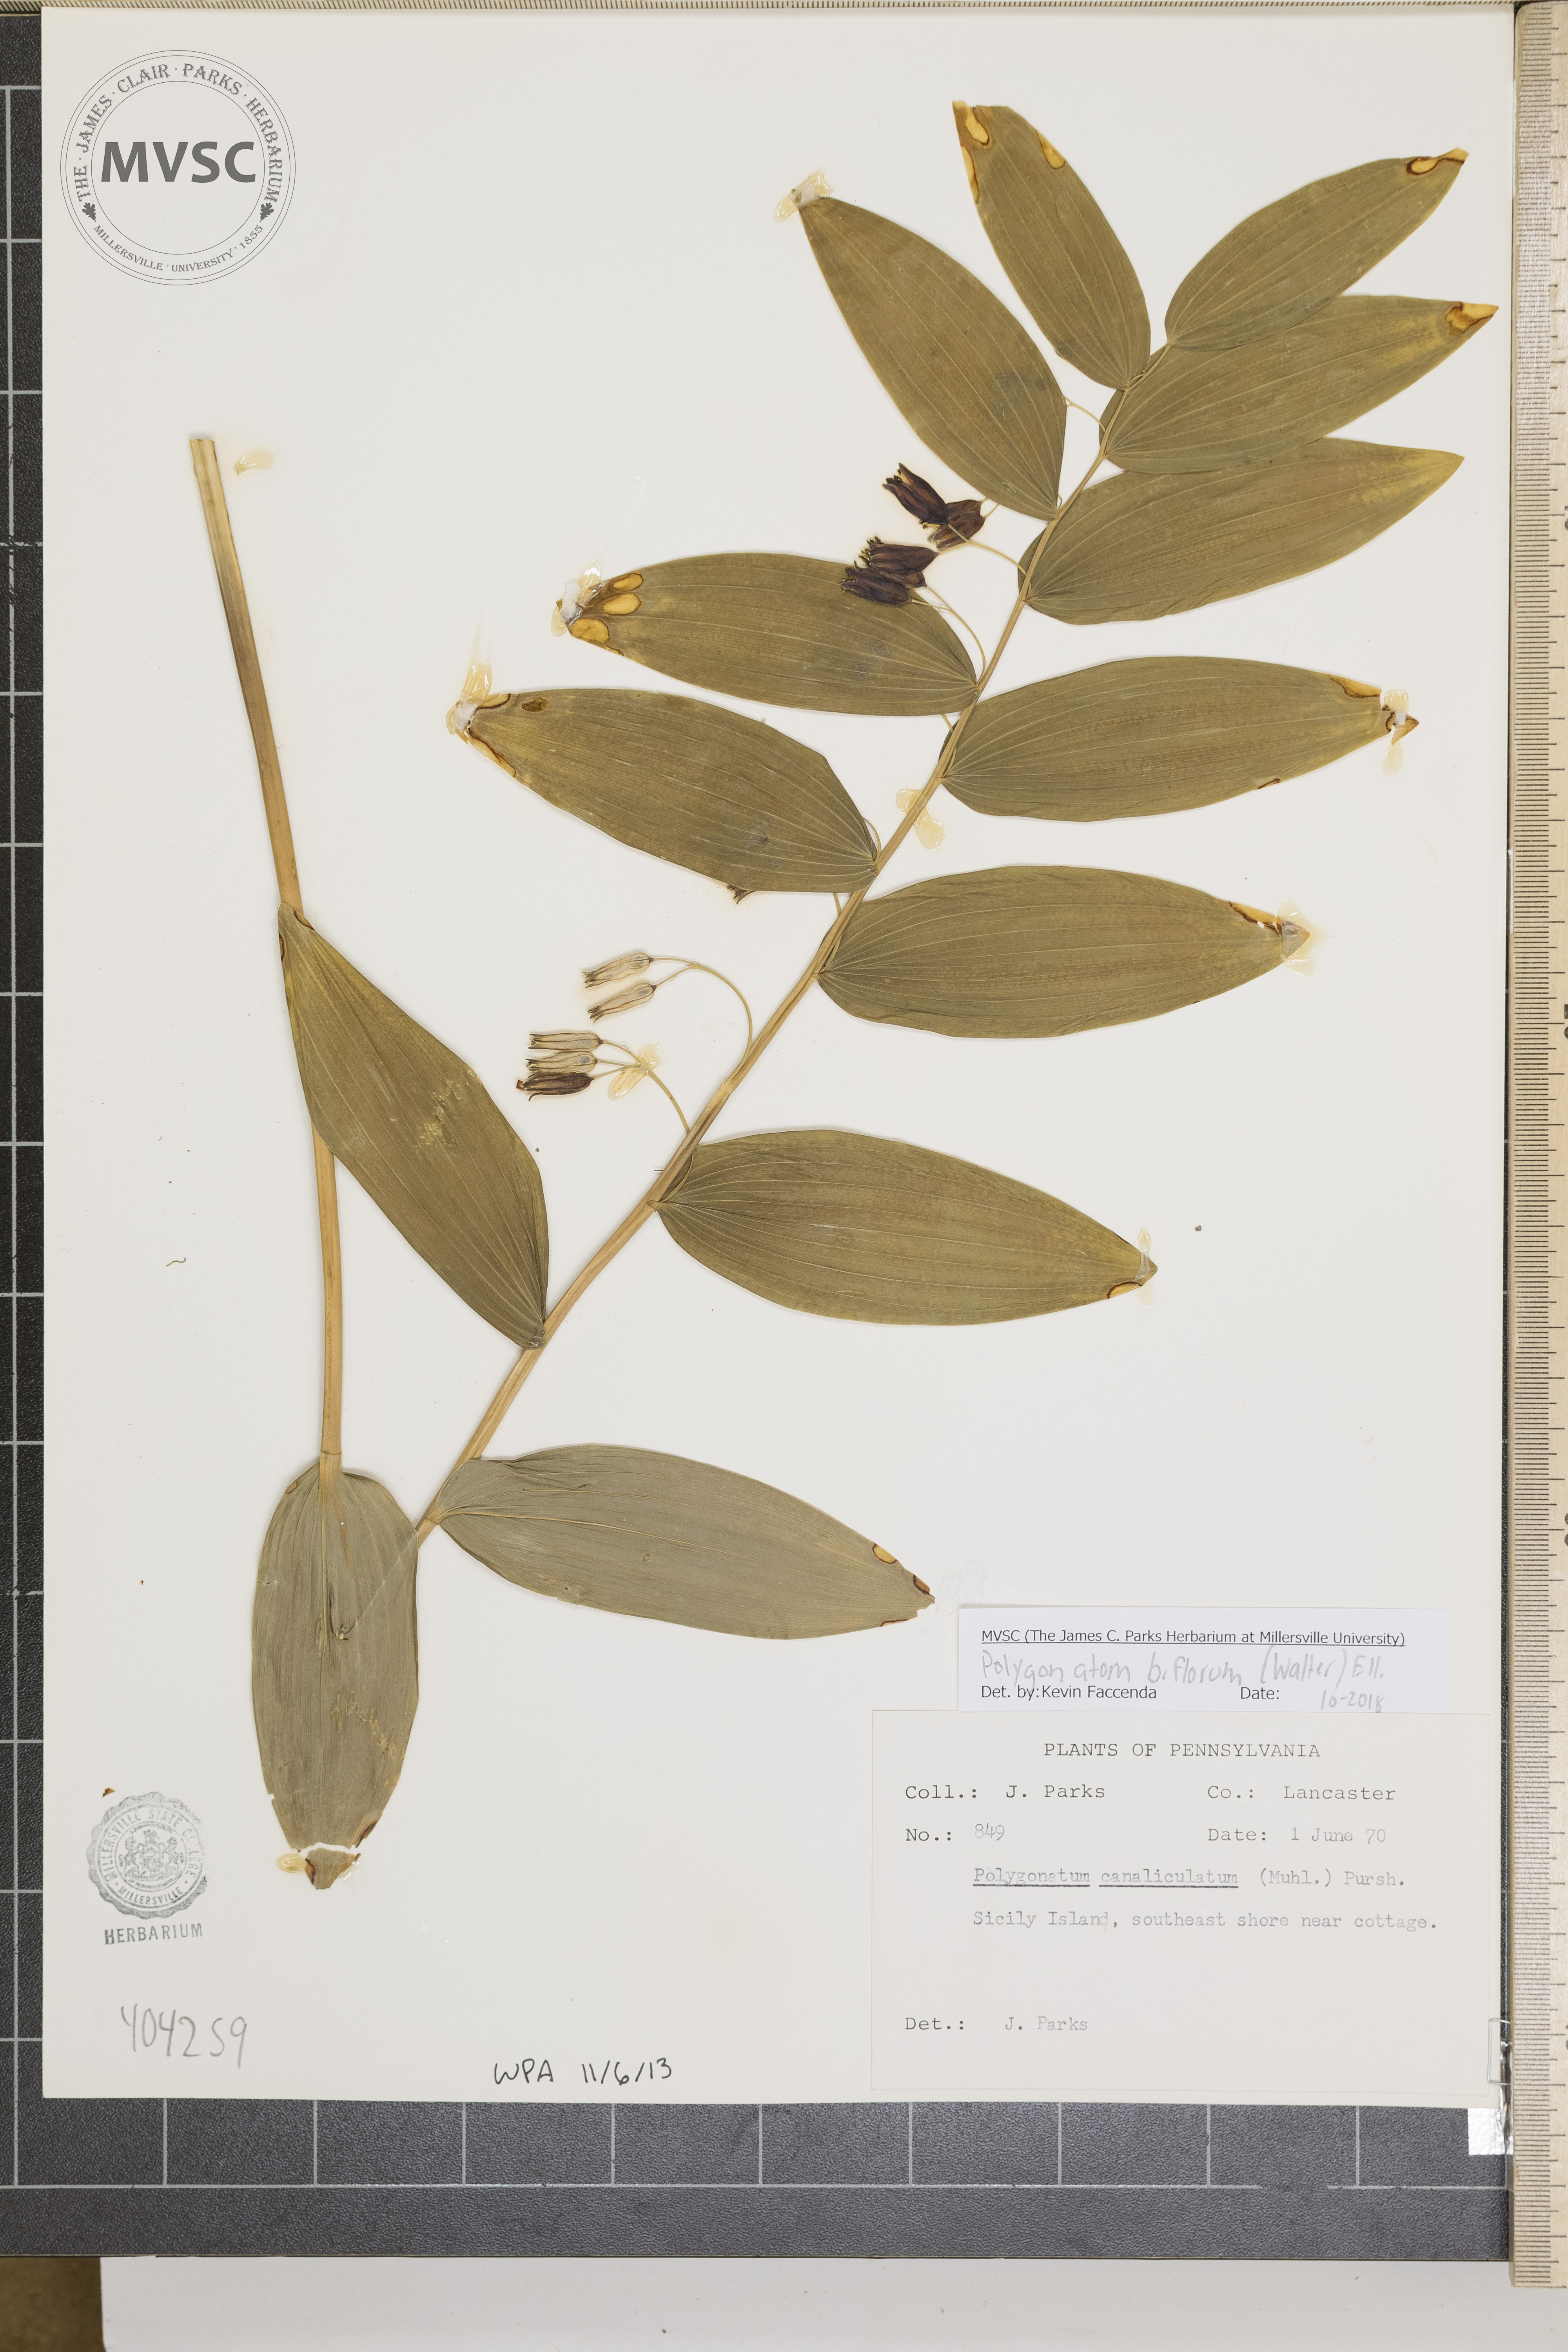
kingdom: Plantae
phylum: Tracheophyta
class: Liliopsida
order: Asparagales
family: Asparagaceae
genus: Polygonatum
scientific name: Polygonatum biflorum
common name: American solomon's-seal
